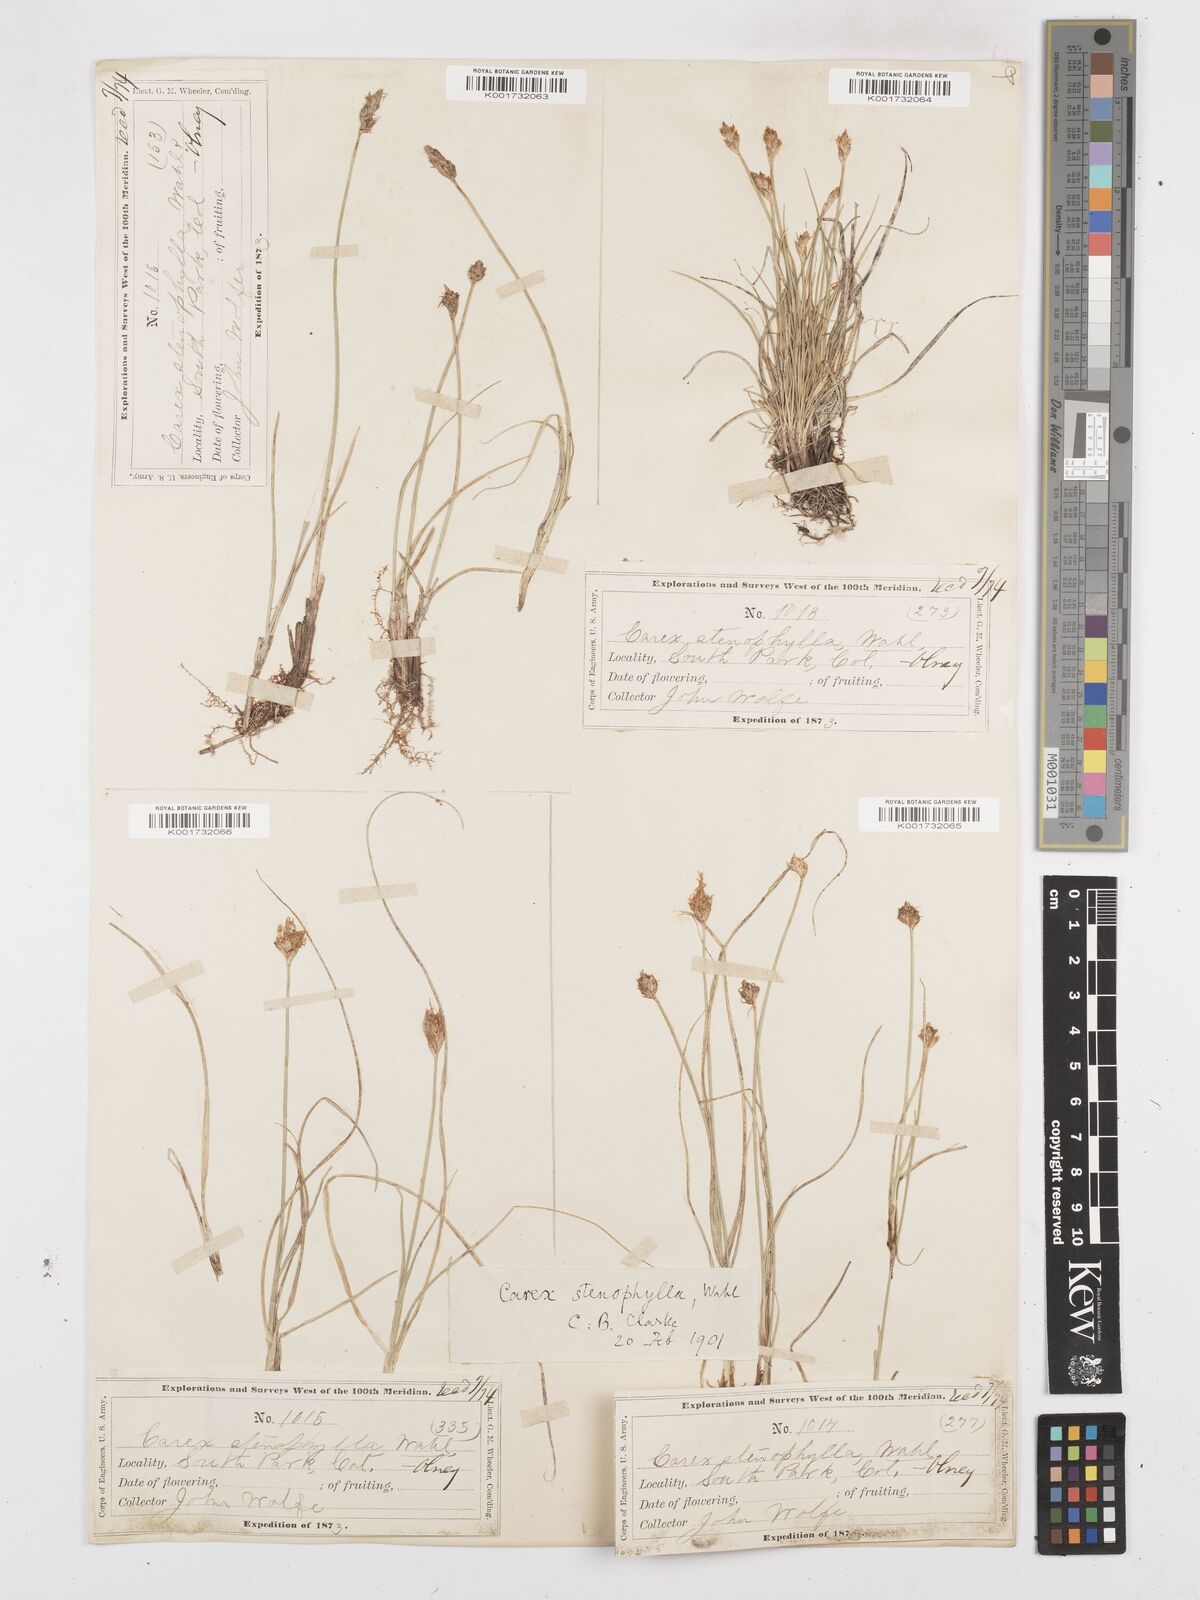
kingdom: Plantae
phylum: Tracheophyta
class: Liliopsida
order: Poales
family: Cyperaceae
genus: Carex
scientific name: Carex duriuscula
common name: Involute-leaved sedge
